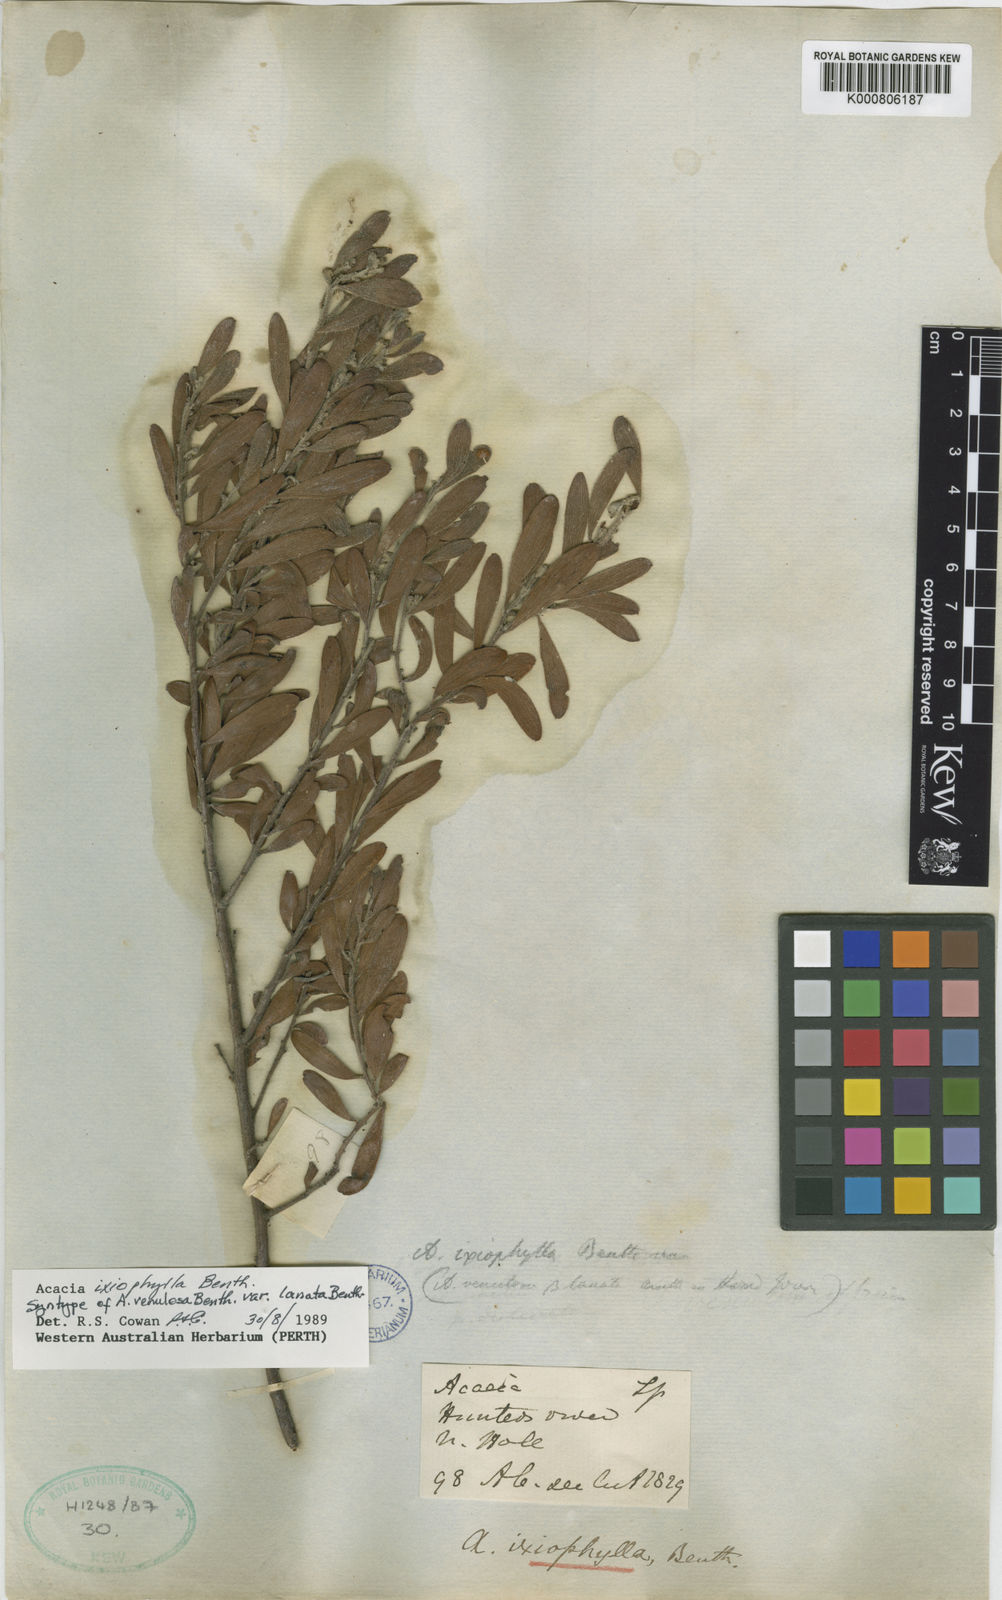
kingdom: Plantae
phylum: Tracheophyta
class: Magnoliopsida
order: Fabales
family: Fabaceae
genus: Acacia
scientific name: Acacia ixiophylla
